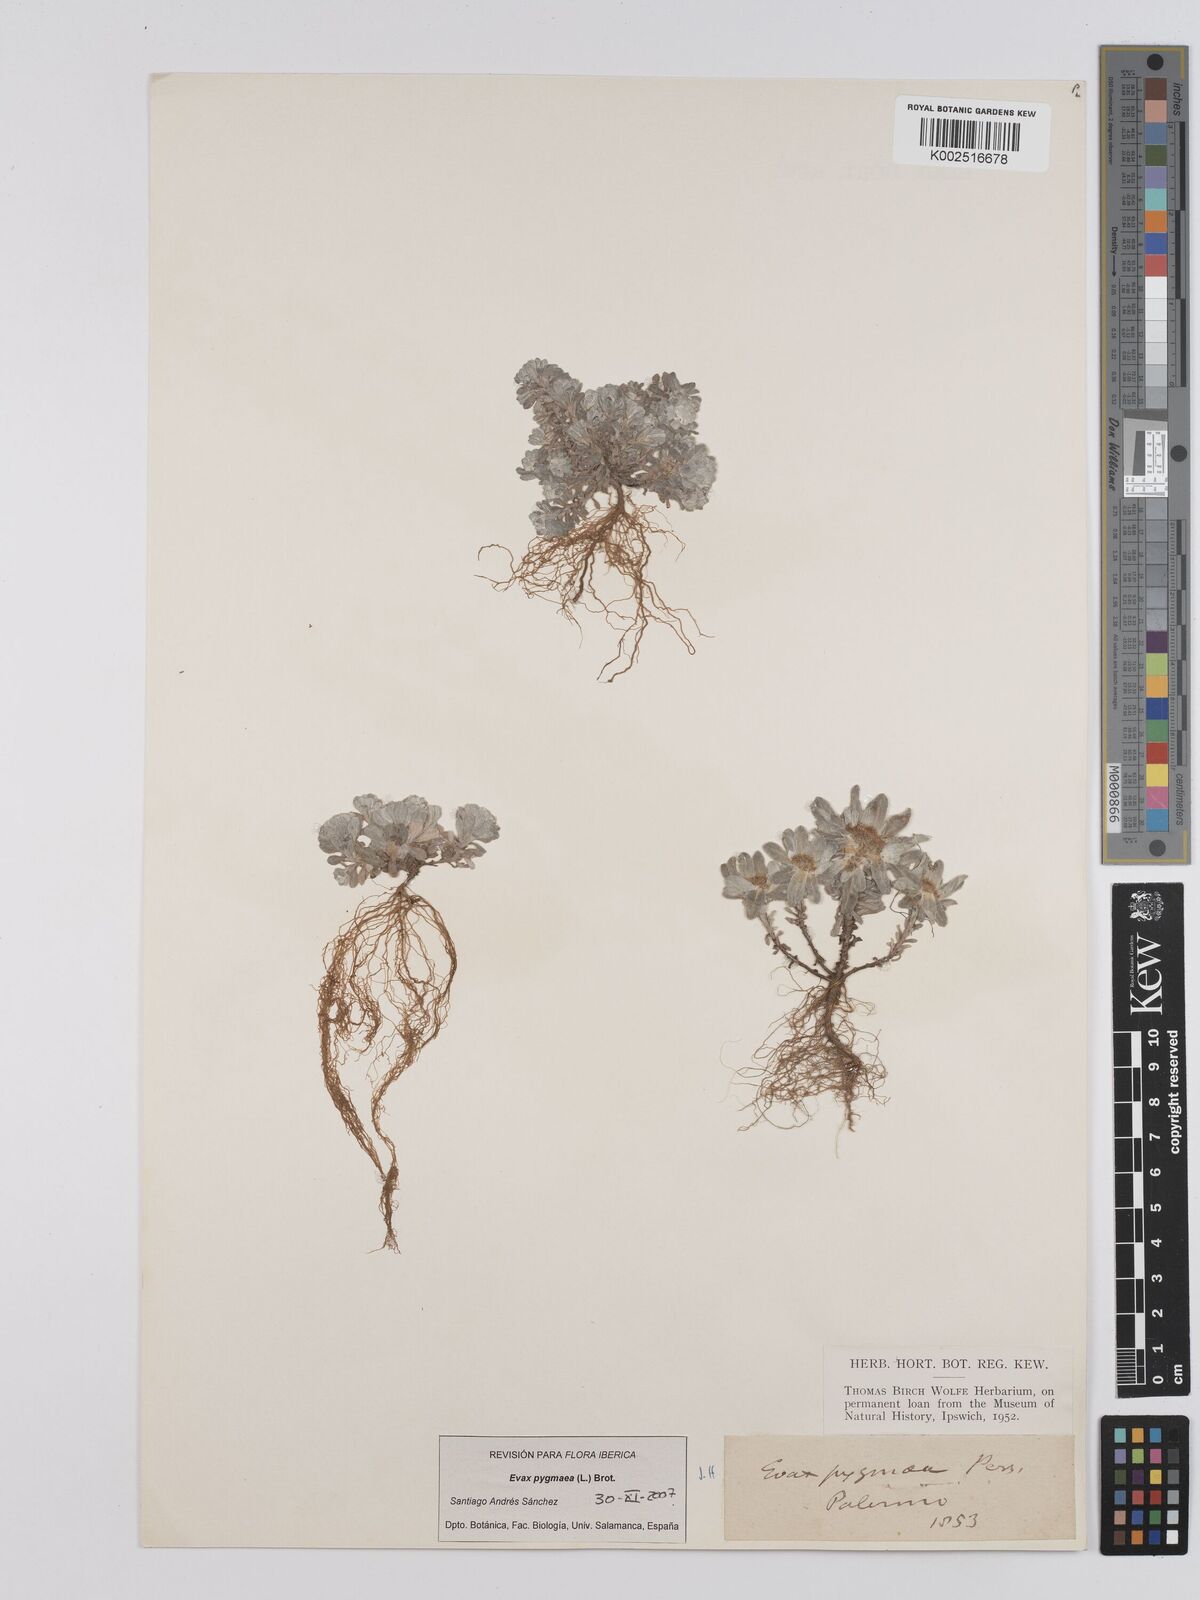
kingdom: Plantae
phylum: Tracheophyta
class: Magnoliopsida
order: Asterales
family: Asteraceae
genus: Filago
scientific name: Filago pygmaea
